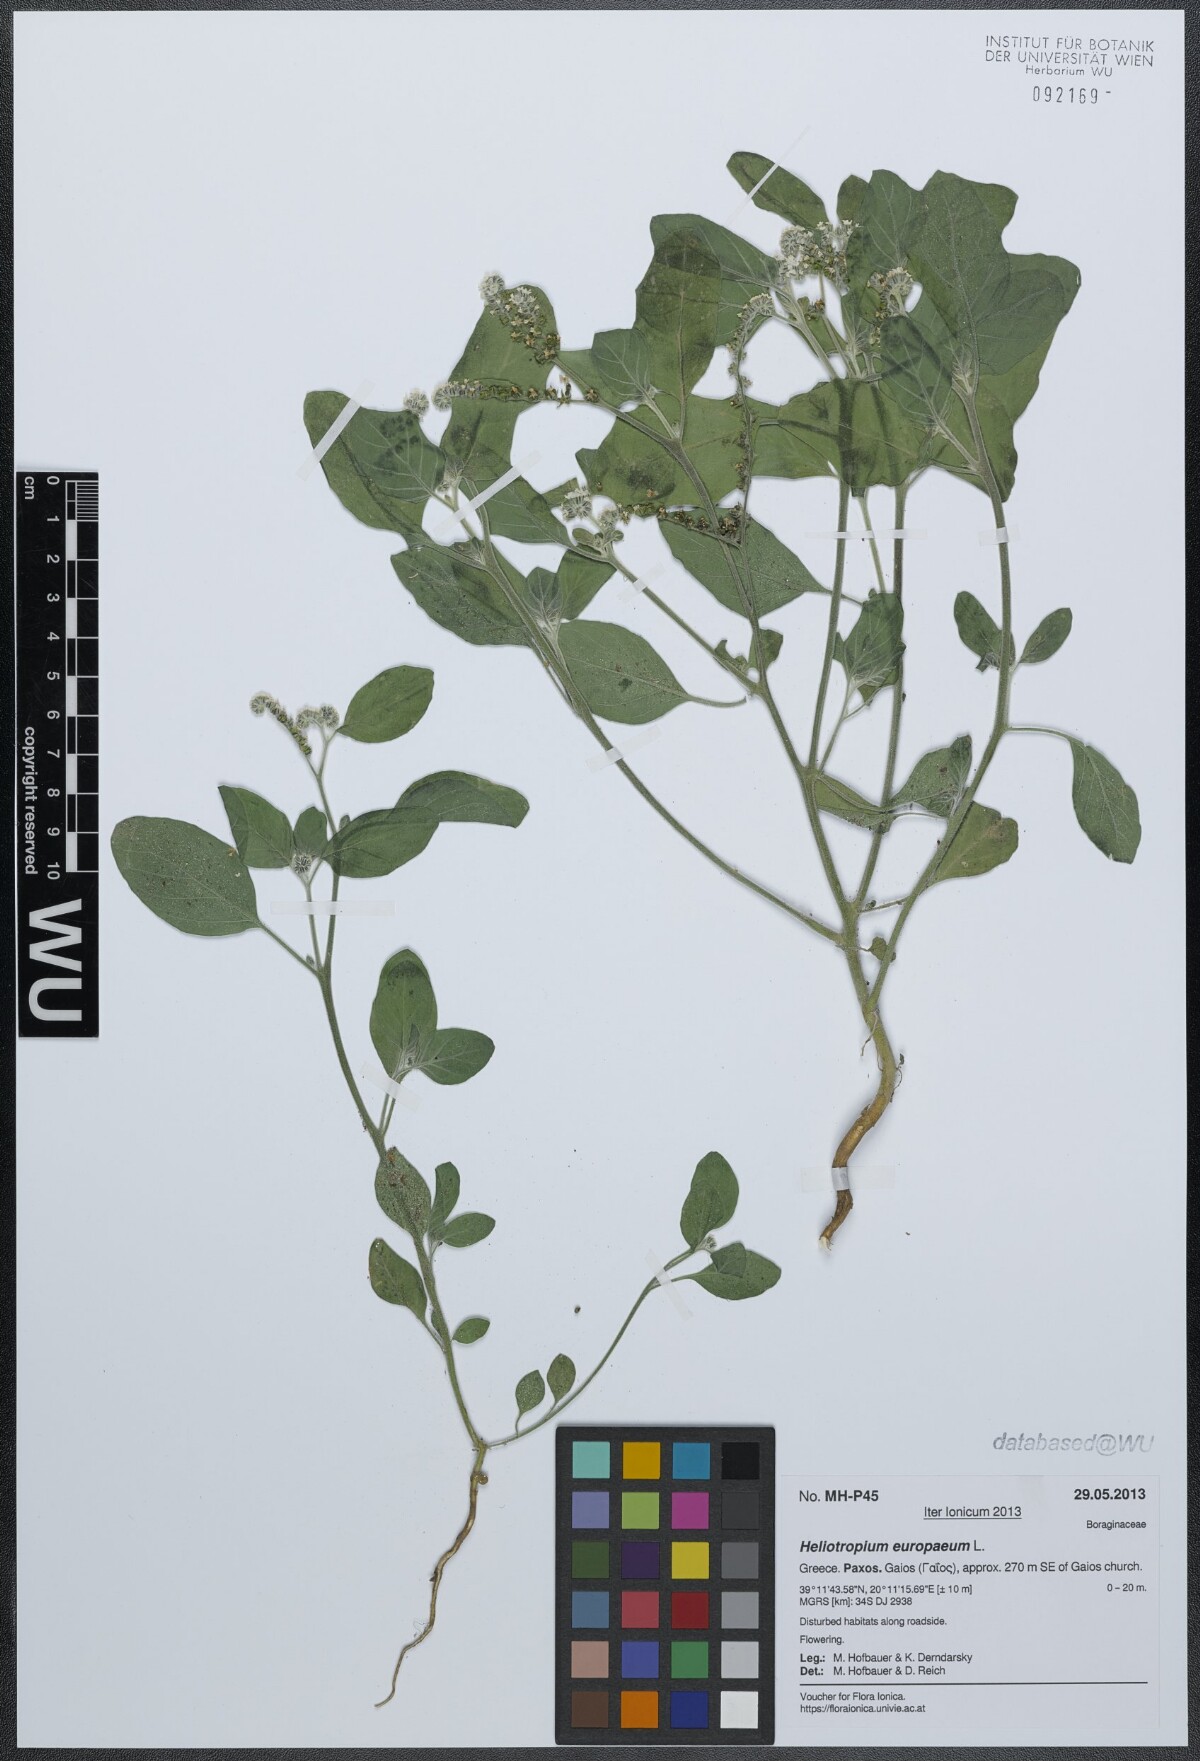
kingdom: Plantae
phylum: Tracheophyta
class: Magnoliopsida
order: Boraginales
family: Heliotropiaceae
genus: Heliotropium
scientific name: Heliotropium europaeum
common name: European heliotrope
